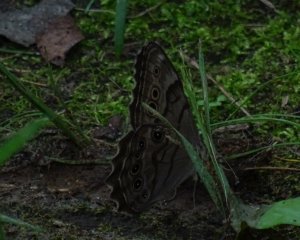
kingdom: Animalia
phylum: Arthropoda
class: Insecta
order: Lepidoptera
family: Nymphalidae
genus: Lethe
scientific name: Lethe anthedon
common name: Northern Pearly-Eye
